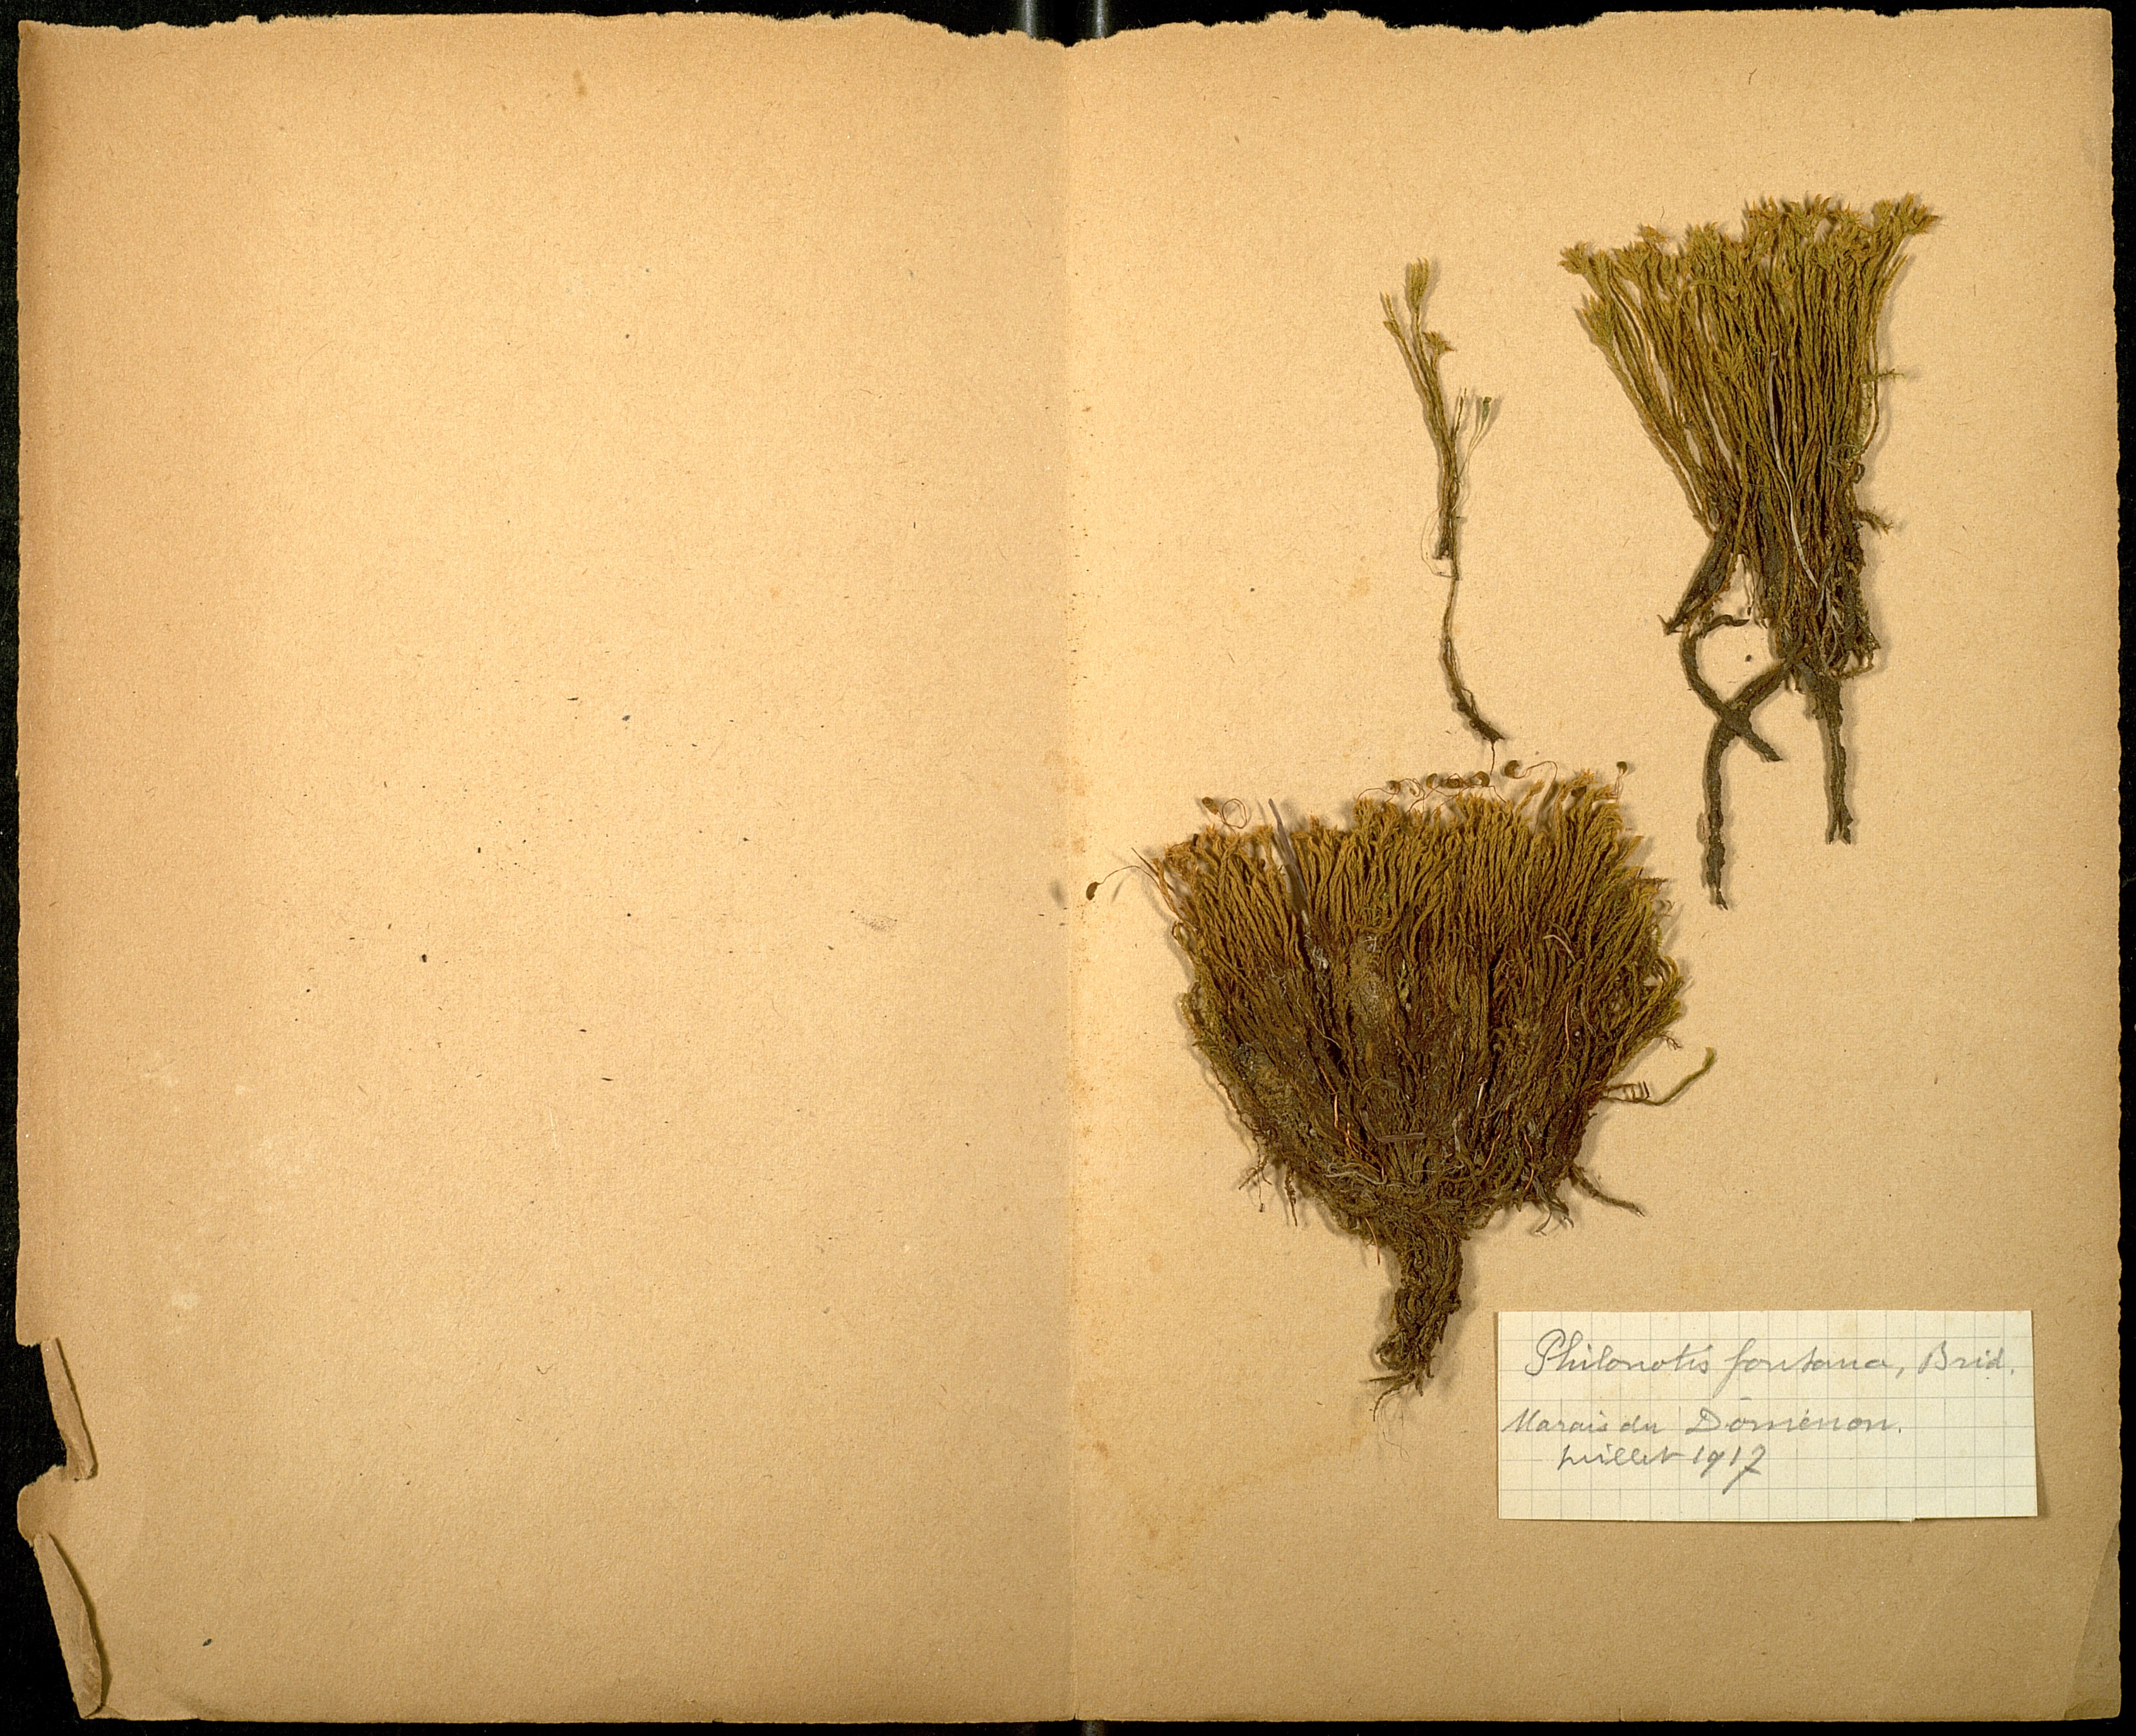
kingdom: Plantae
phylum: Bryophyta
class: Bryopsida
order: Bartramiales
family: Bartramiaceae
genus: Philonotis
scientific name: Philonotis fontana
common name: Fountain apple-moss
